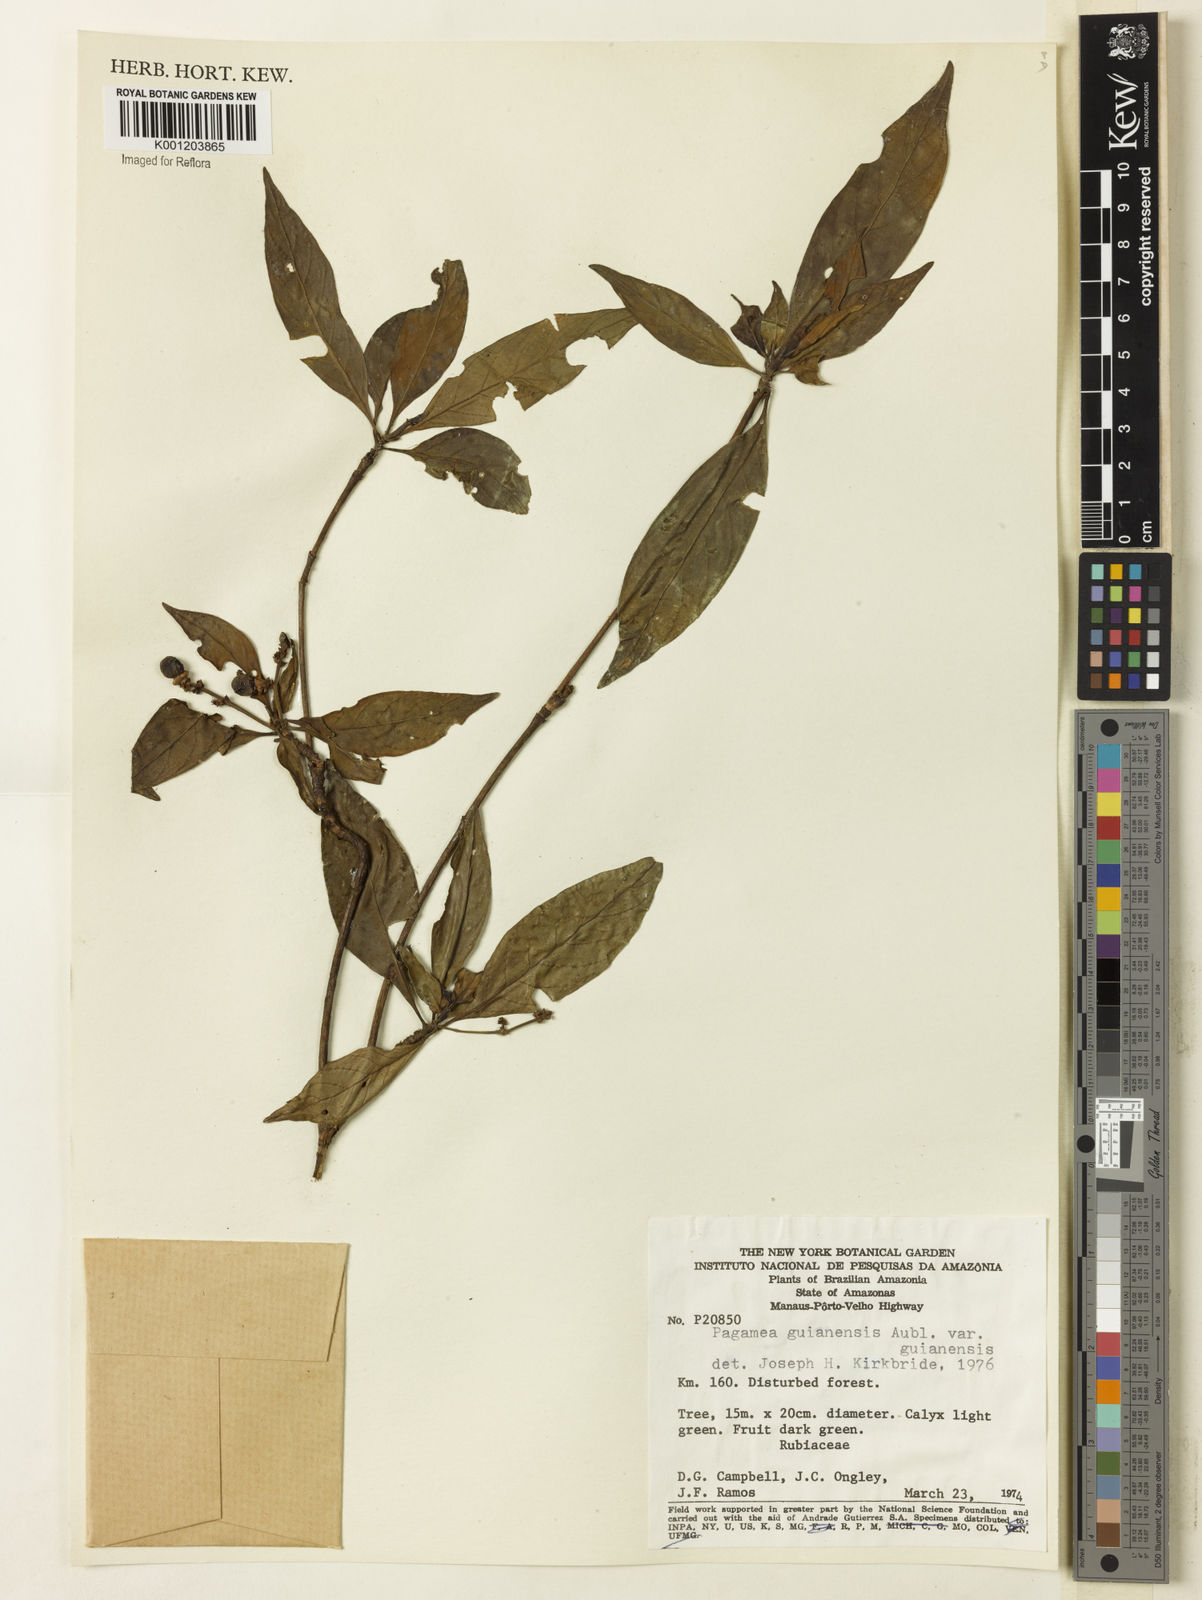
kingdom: Plantae
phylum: Tracheophyta
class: Magnoliopsida
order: Gentianales
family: Rubiaceae
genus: Pagamea
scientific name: Pagamea guianensis
